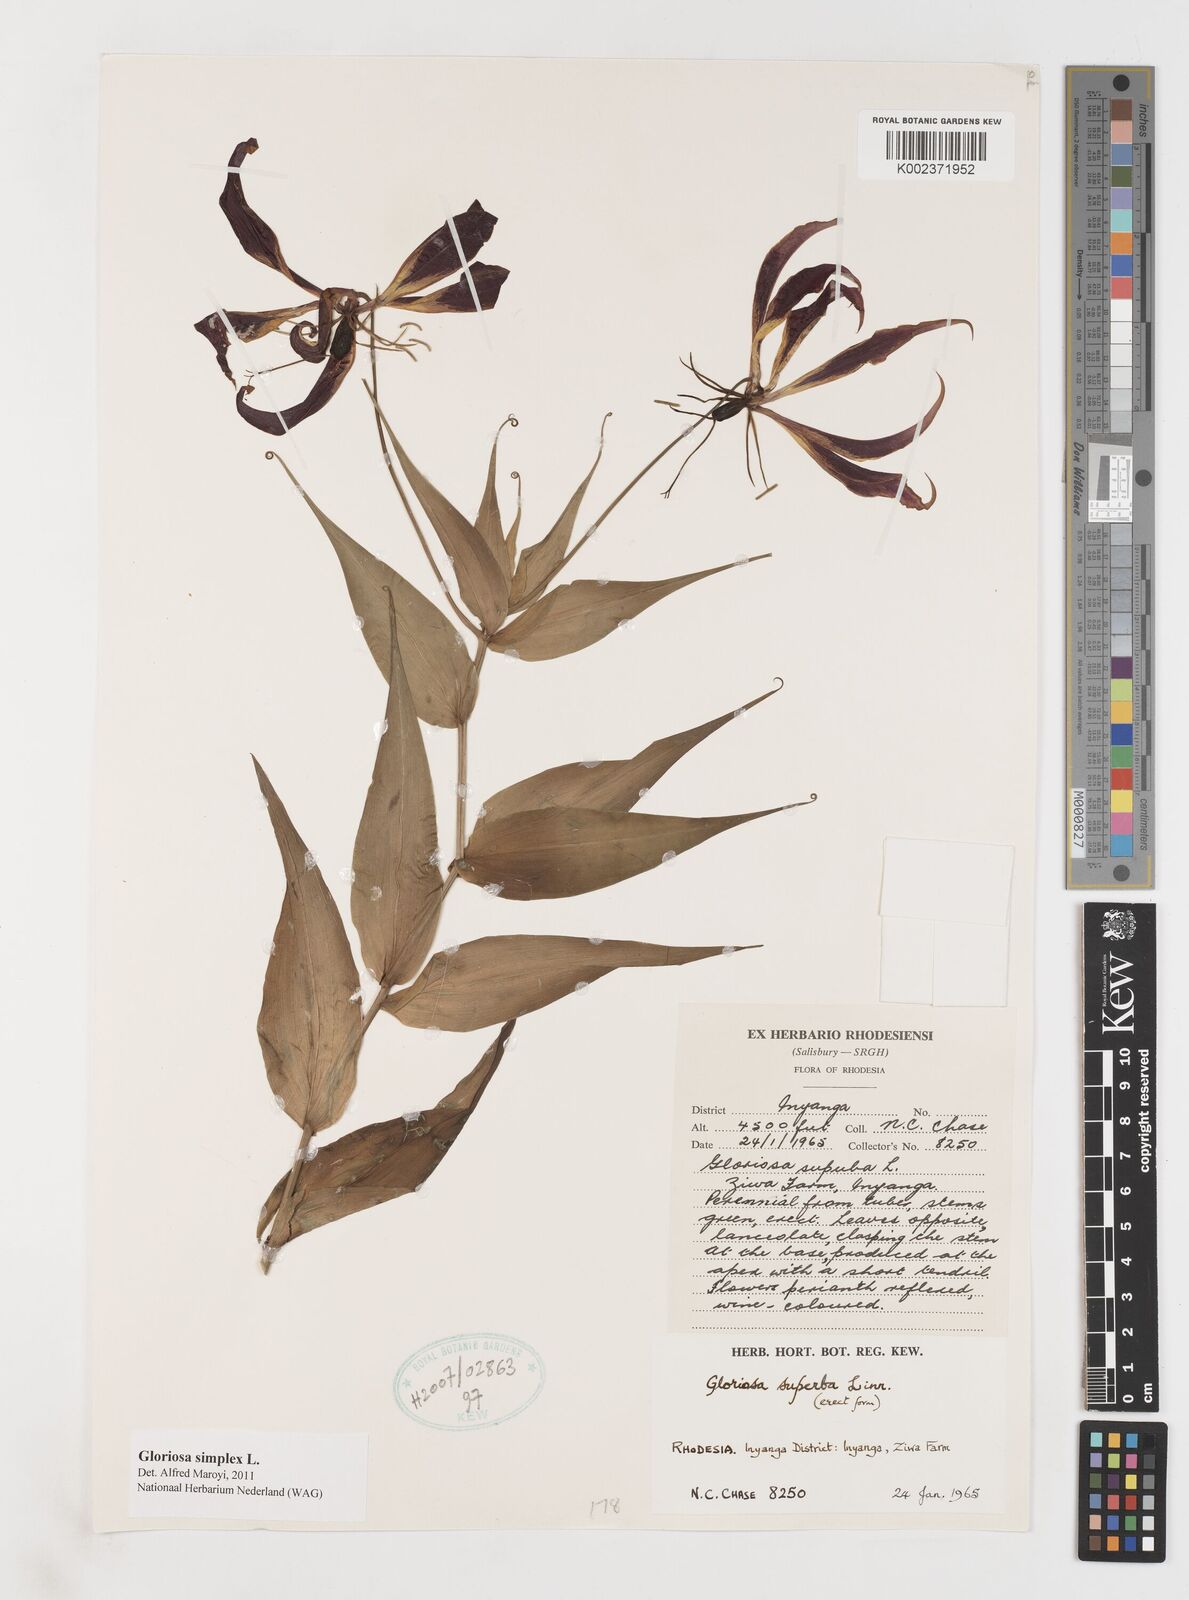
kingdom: Plantae
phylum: Tracheophyta
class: Liliopsida
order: Liliales
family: Colchicaceae
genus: Gloriosa
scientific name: Gloriosa simplex
